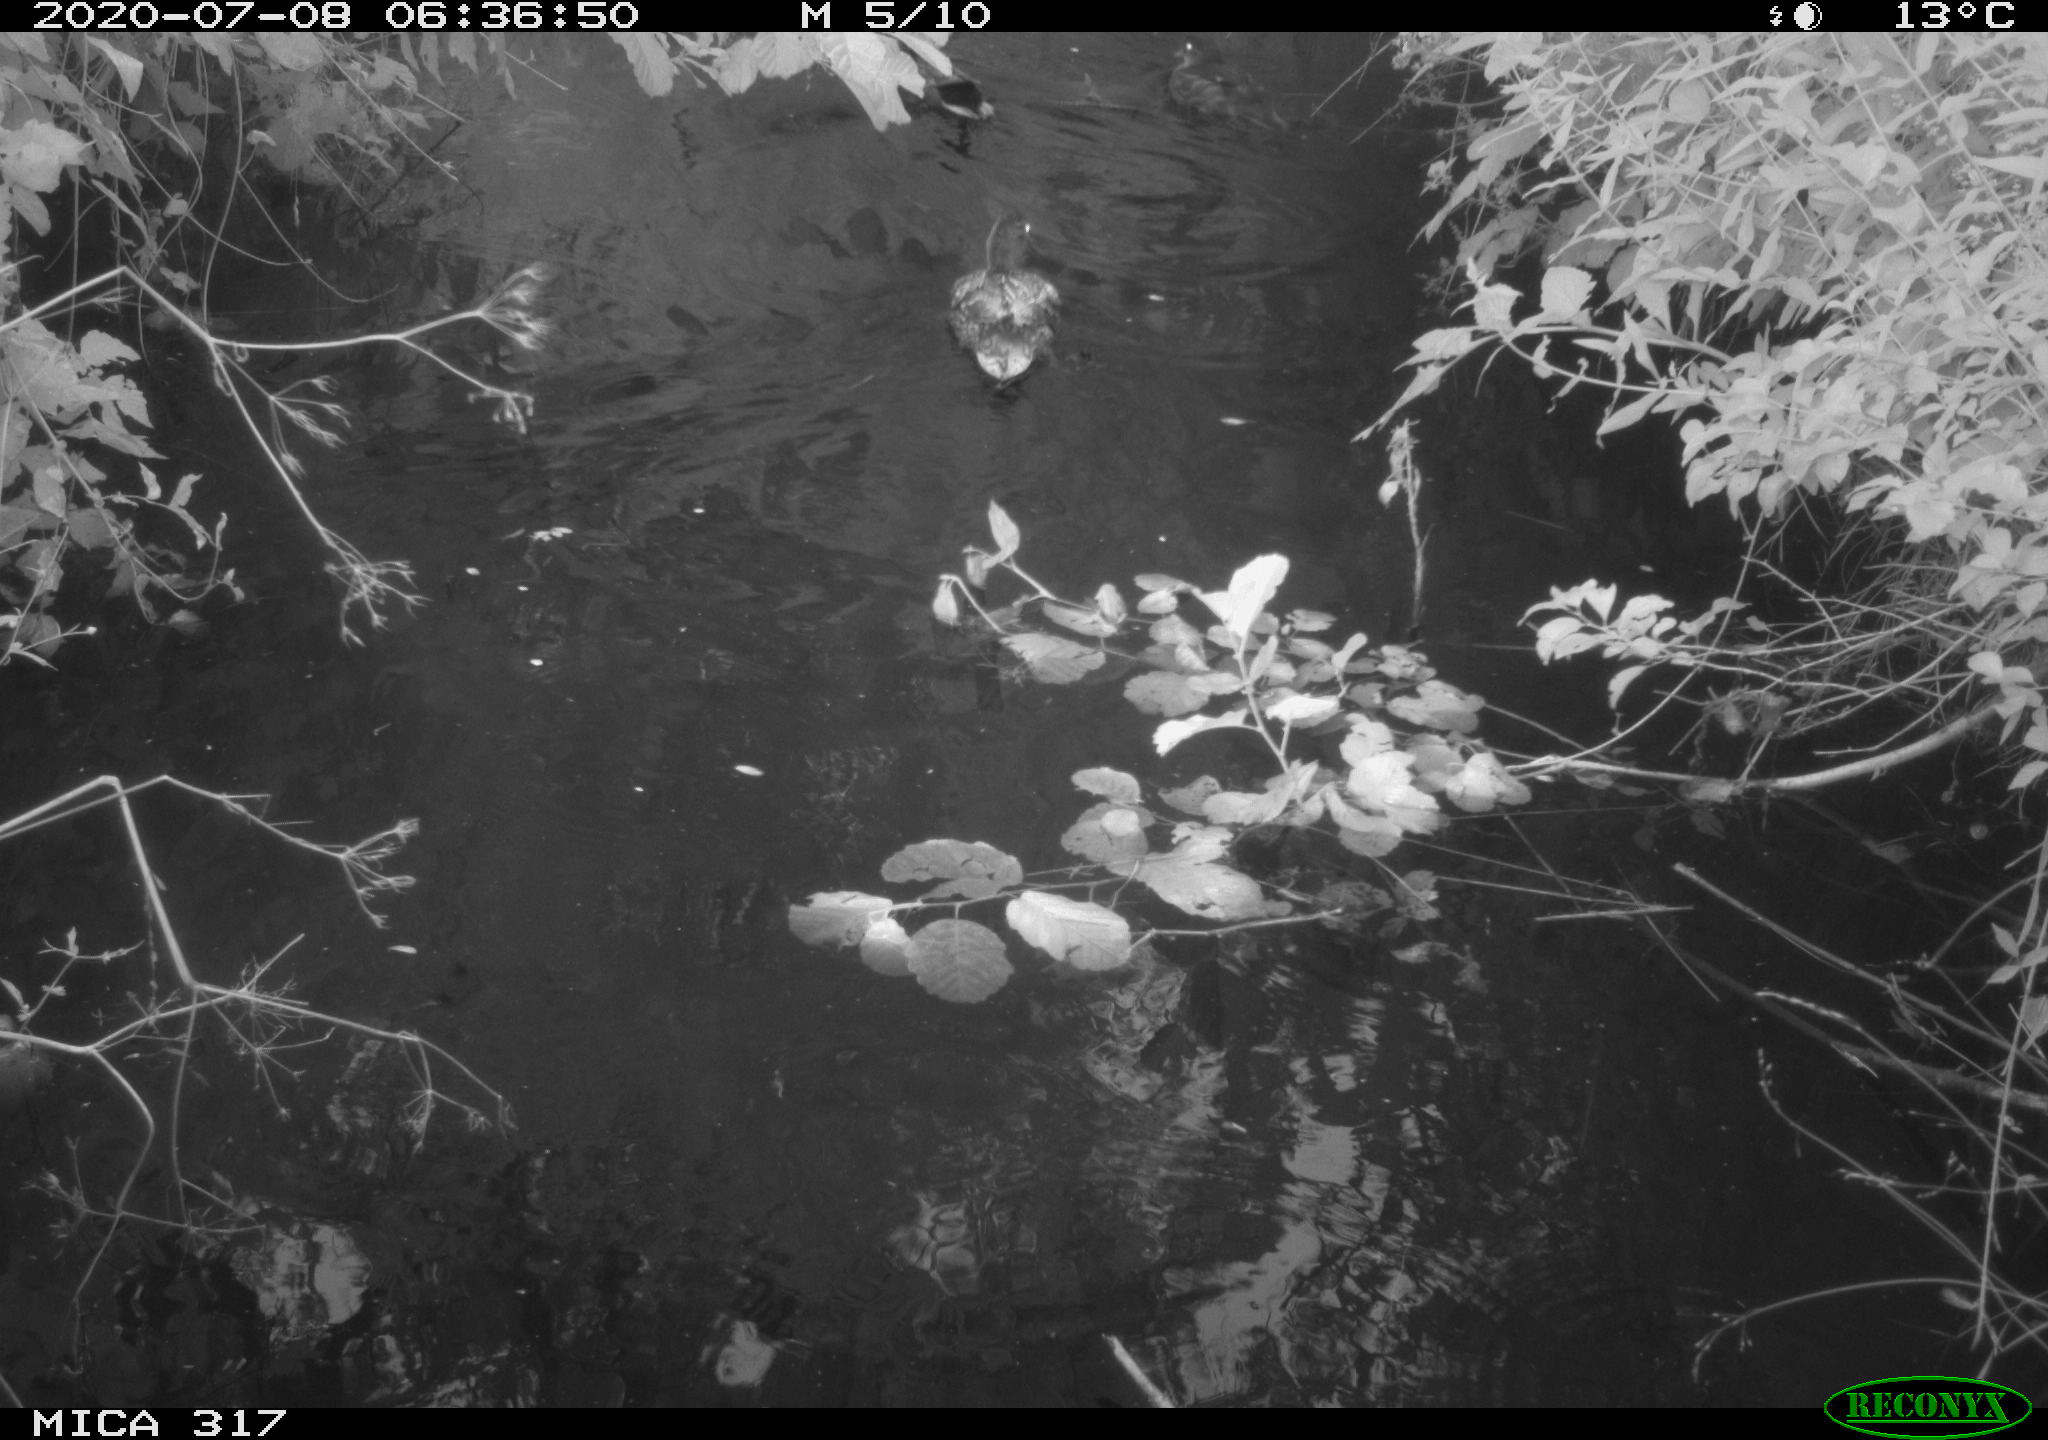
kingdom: Animalia
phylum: Chordata
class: Aves
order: Anseriformes
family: Anatidae
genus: Aix
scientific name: Aix galericulata
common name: Mandarin duck
